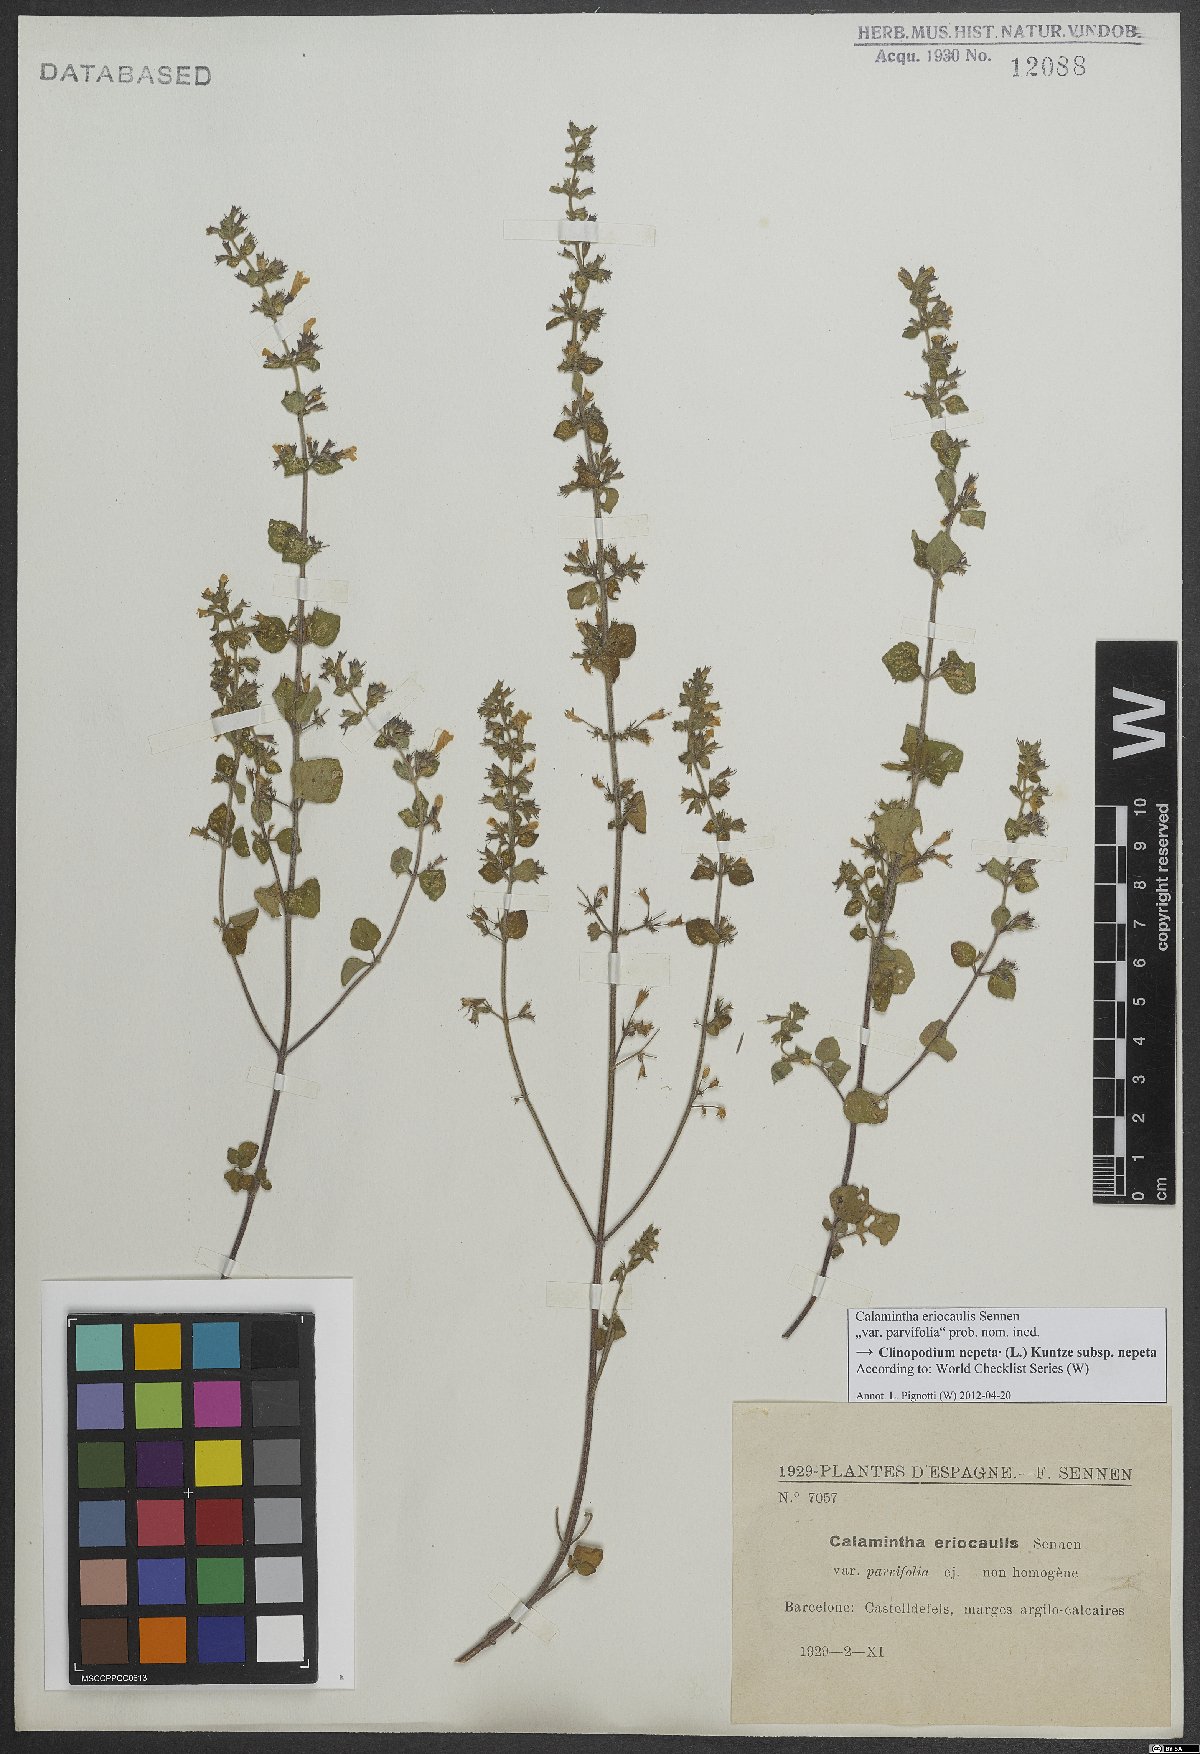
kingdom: Plantae
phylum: Tracheophyta
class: Magnoliopsida
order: Lamiales
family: Lamiaceae
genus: Clinopodium
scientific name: Clinopodium nepeta
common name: Lesser calamint
